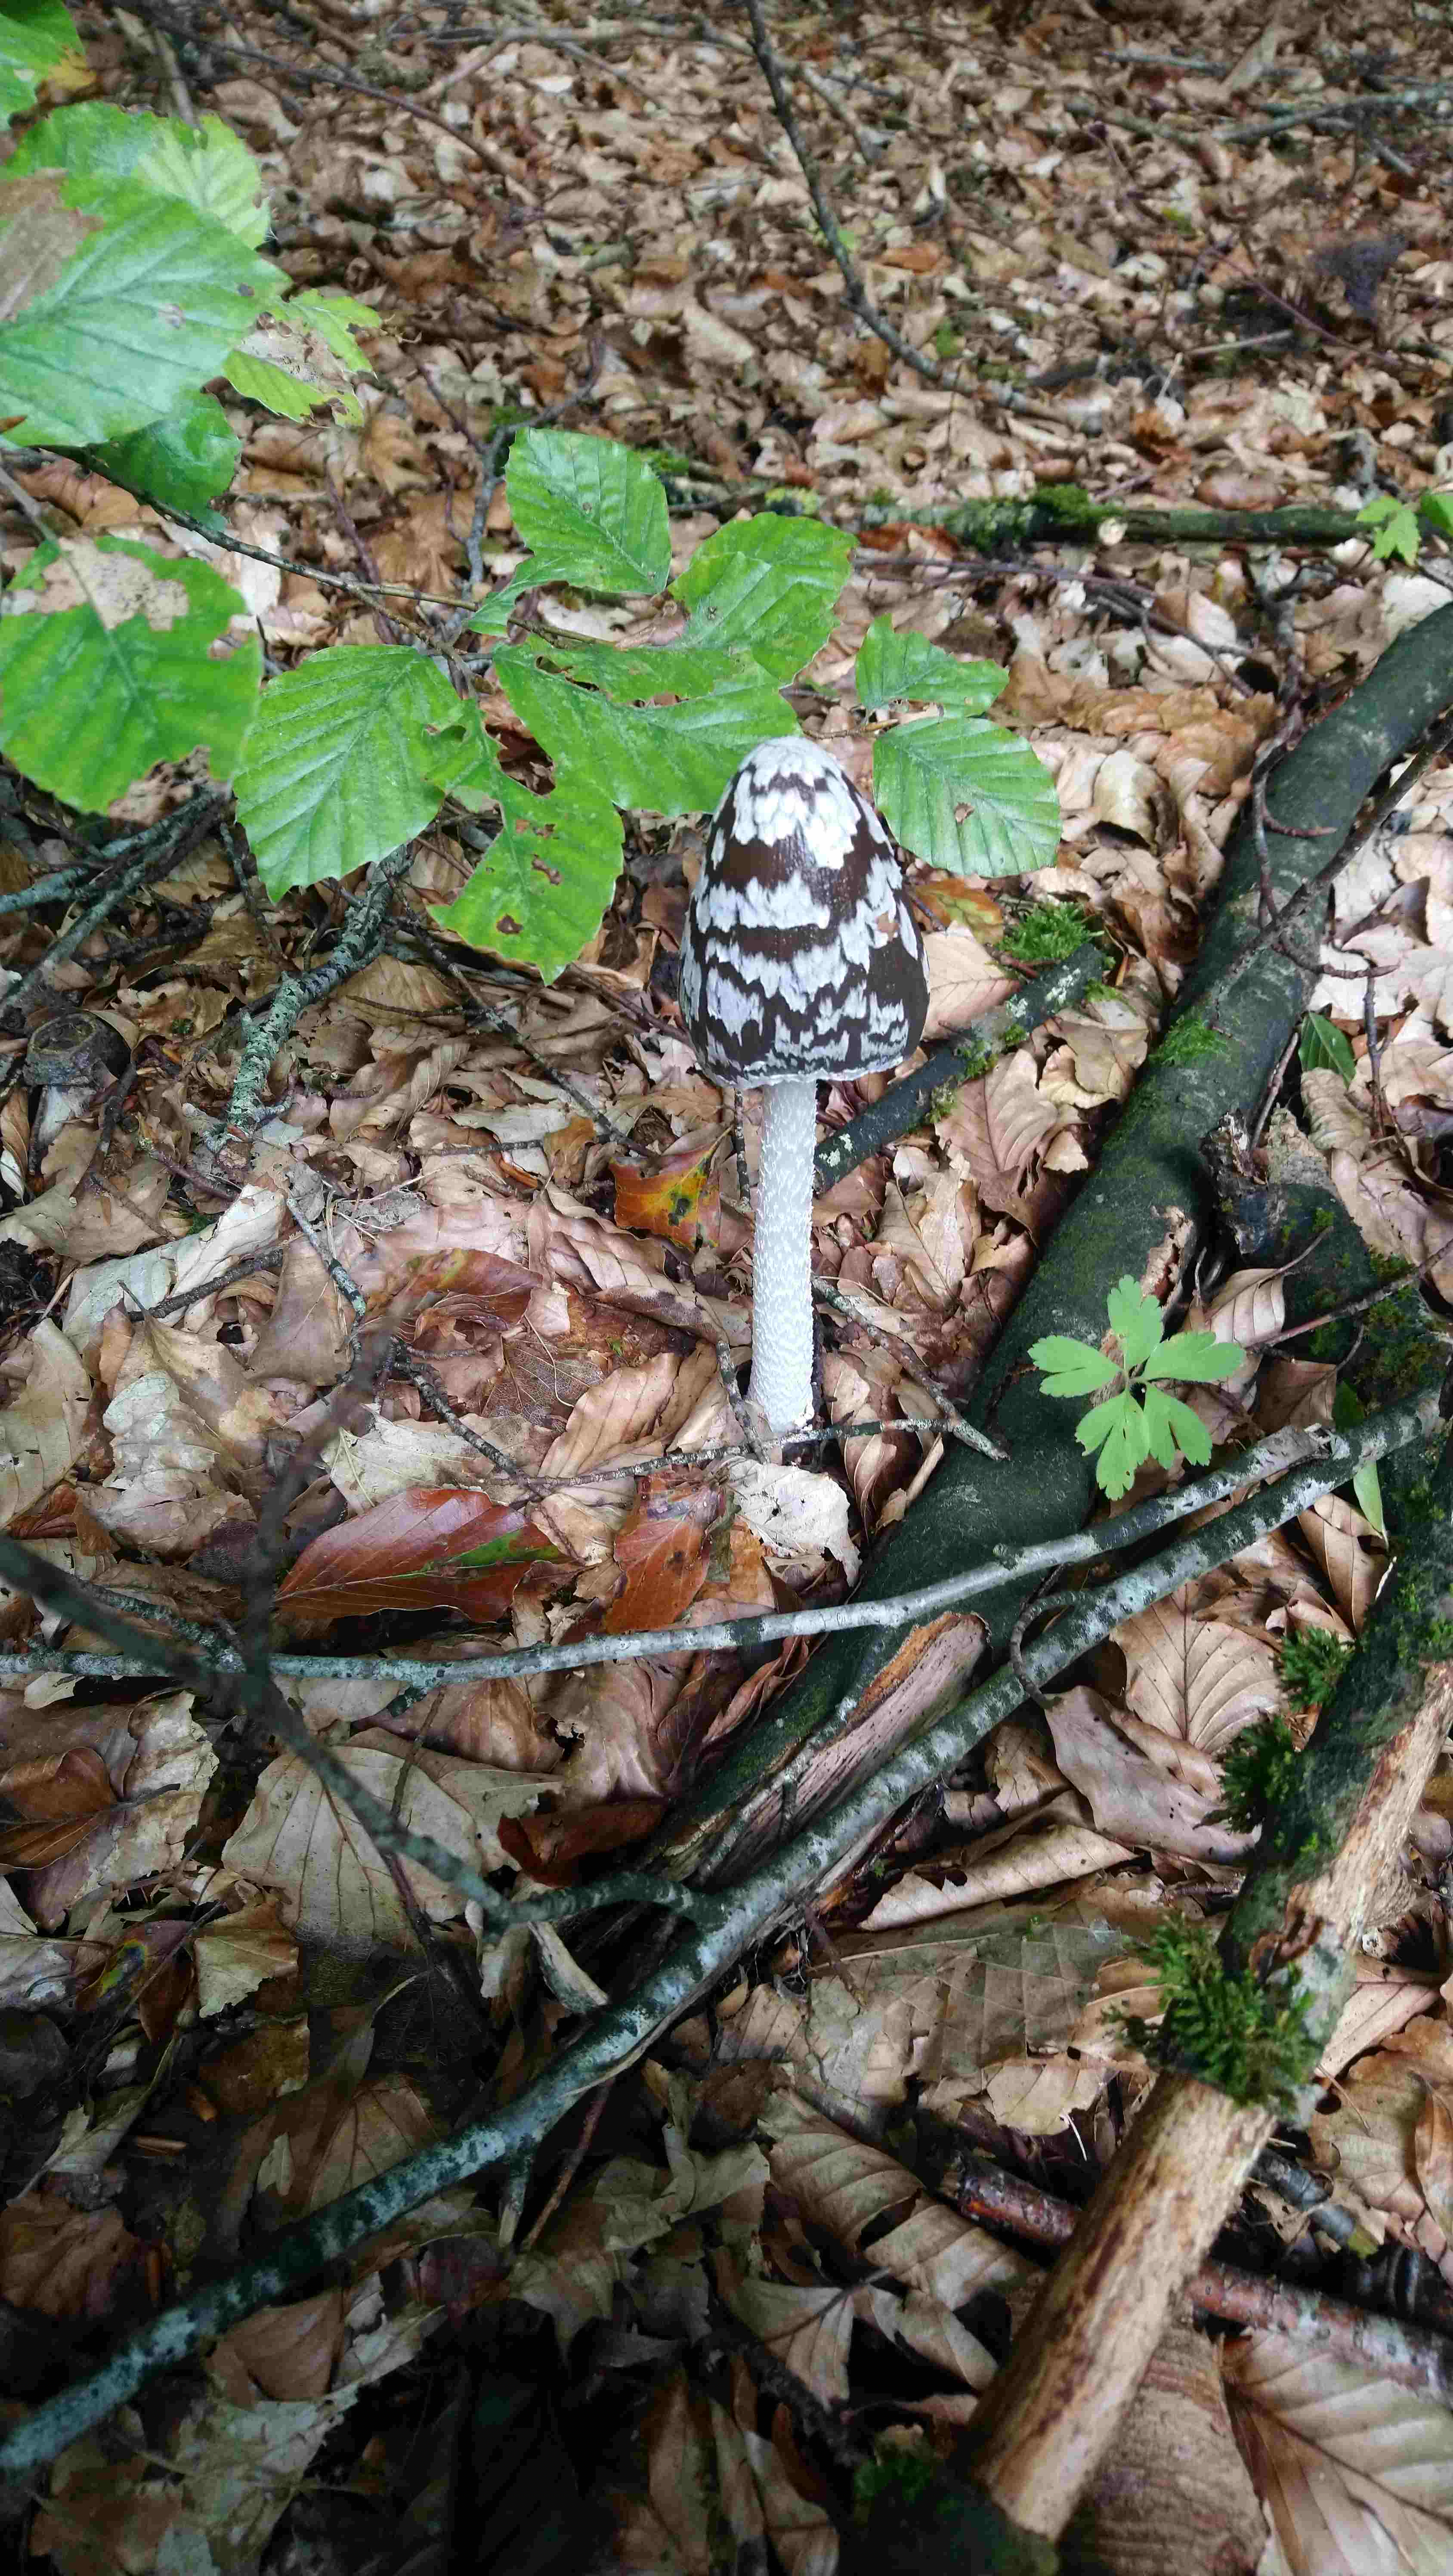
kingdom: Fungi
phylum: Basidiomycota
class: Agaricomycetes
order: Agaricales
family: Psathyrellaceae
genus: Coprinopsis
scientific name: Coprinopsis picacea
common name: skade-blækhat
